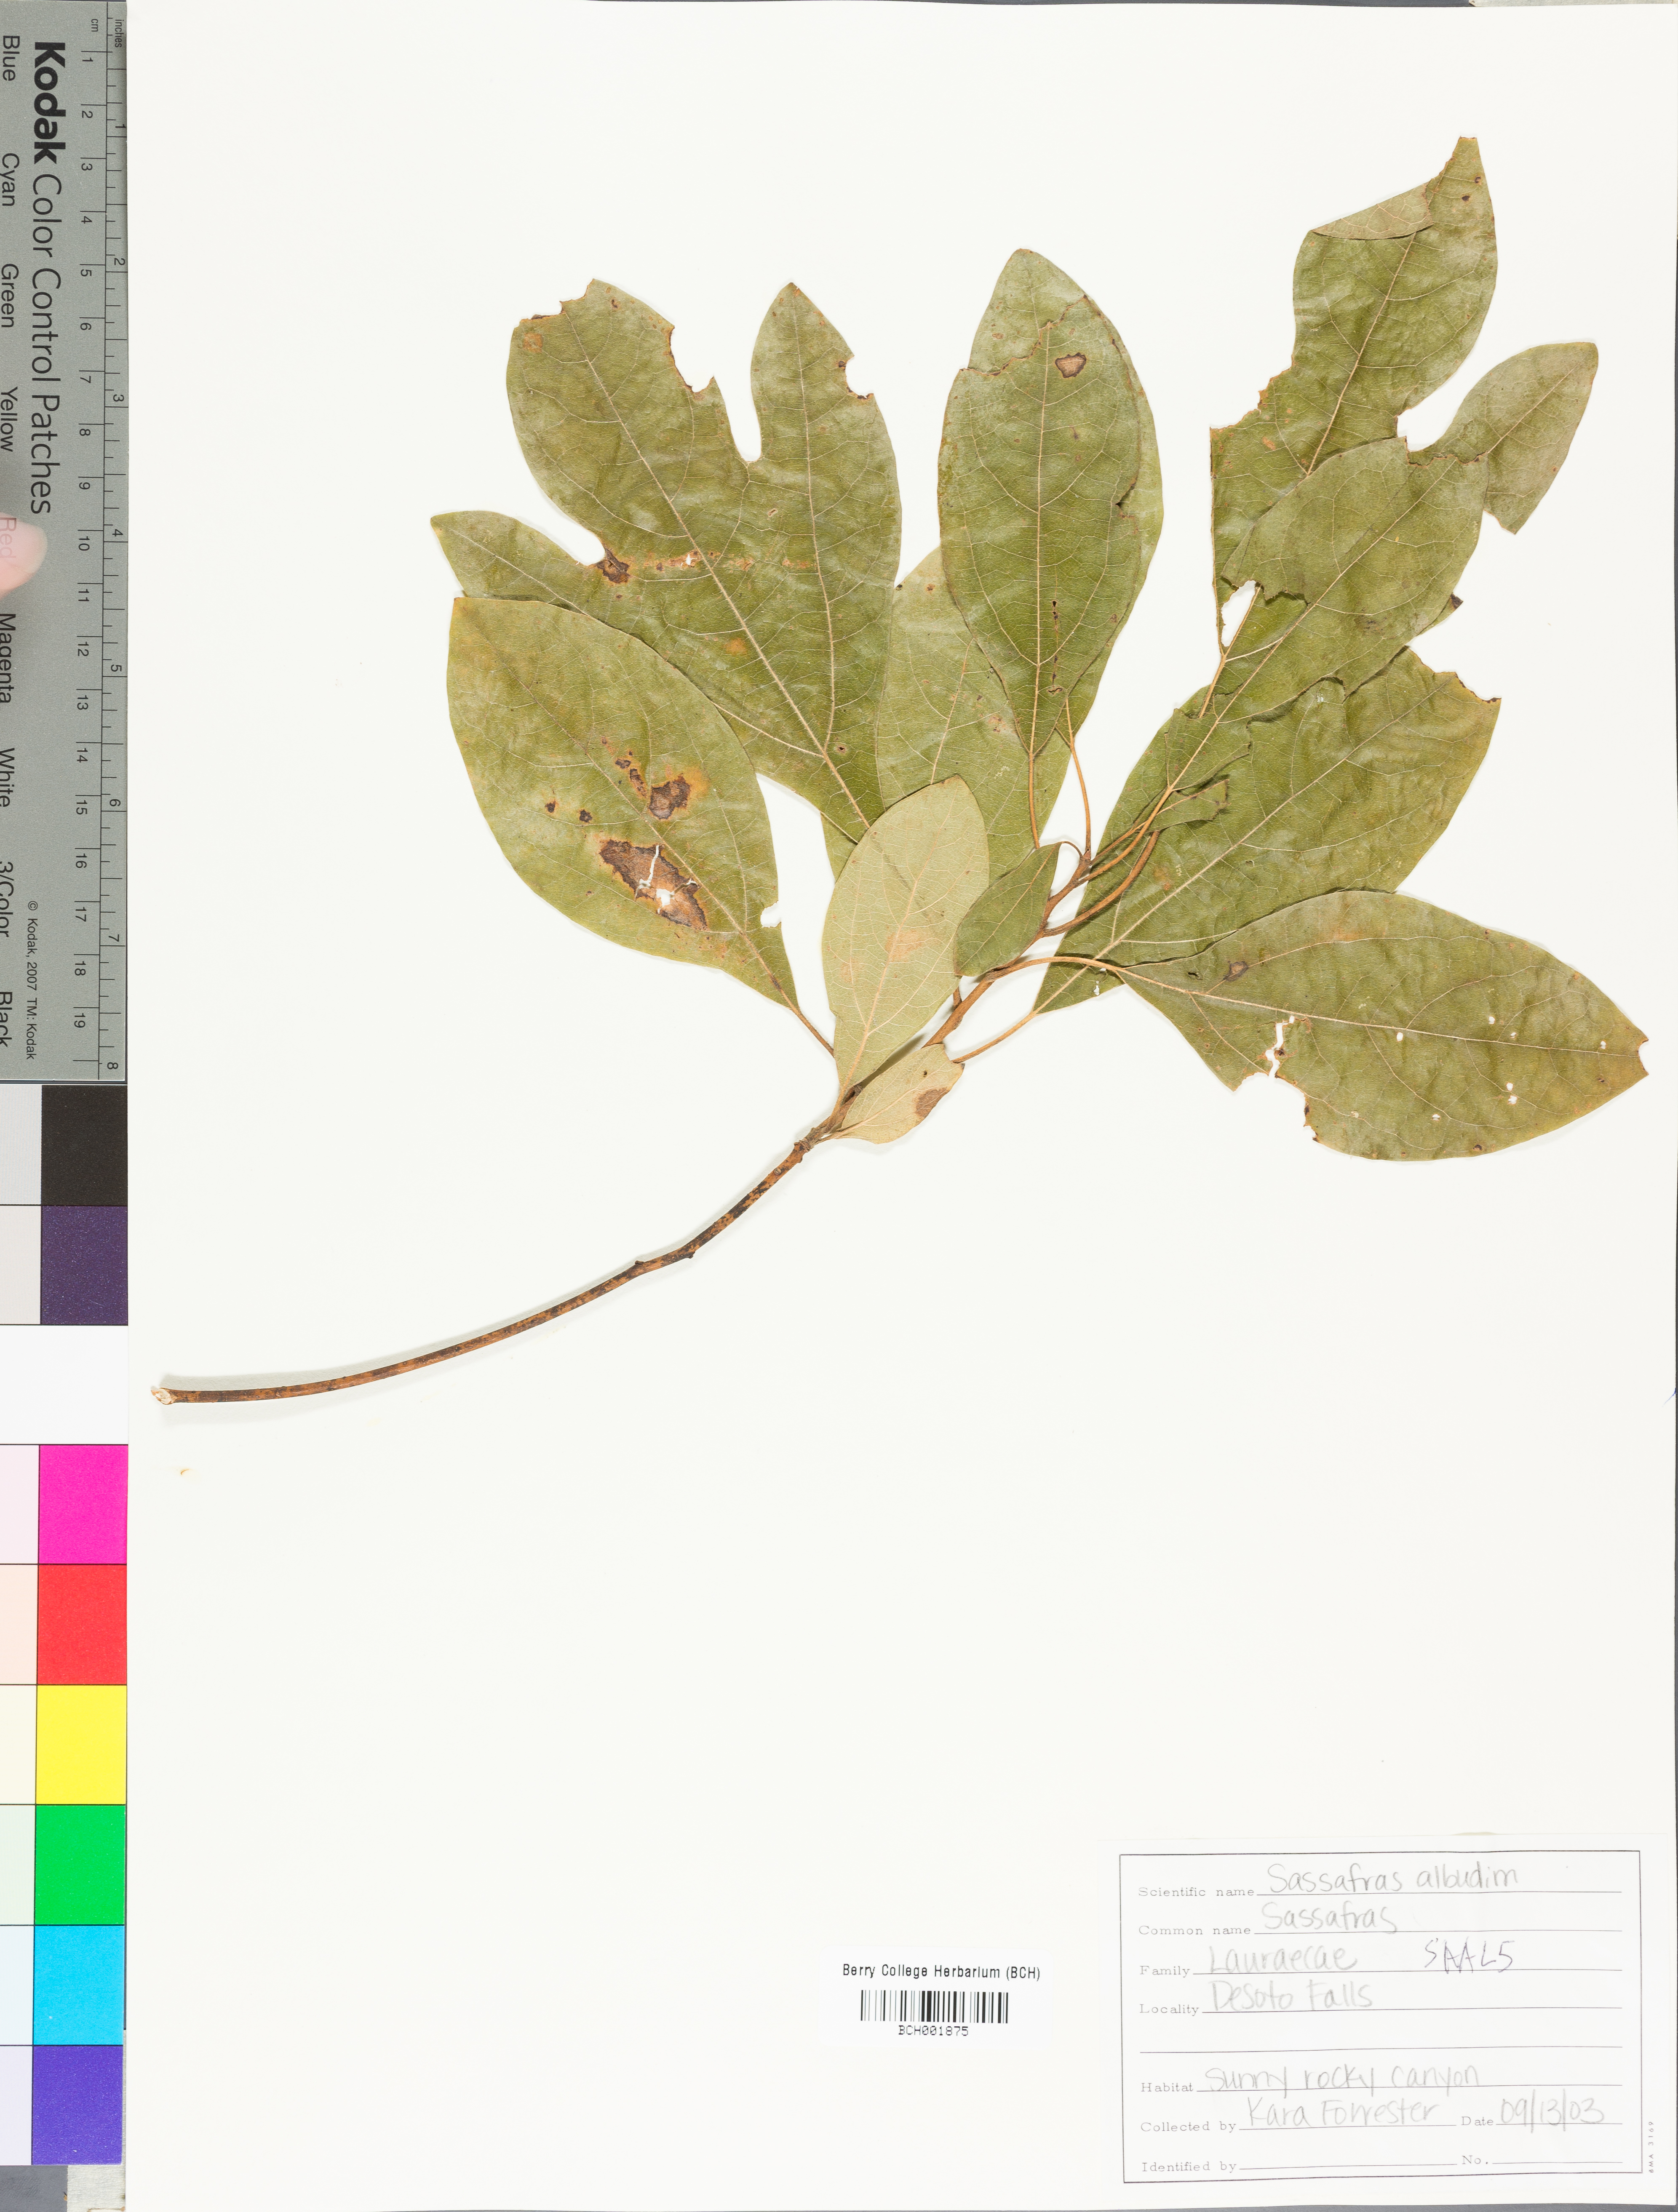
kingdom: Plantae
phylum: Tracheophyta
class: Magnoliopsida
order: Laurales
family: Lauraceae
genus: Sassafras
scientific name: Sassafras albidum
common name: Sassafras
